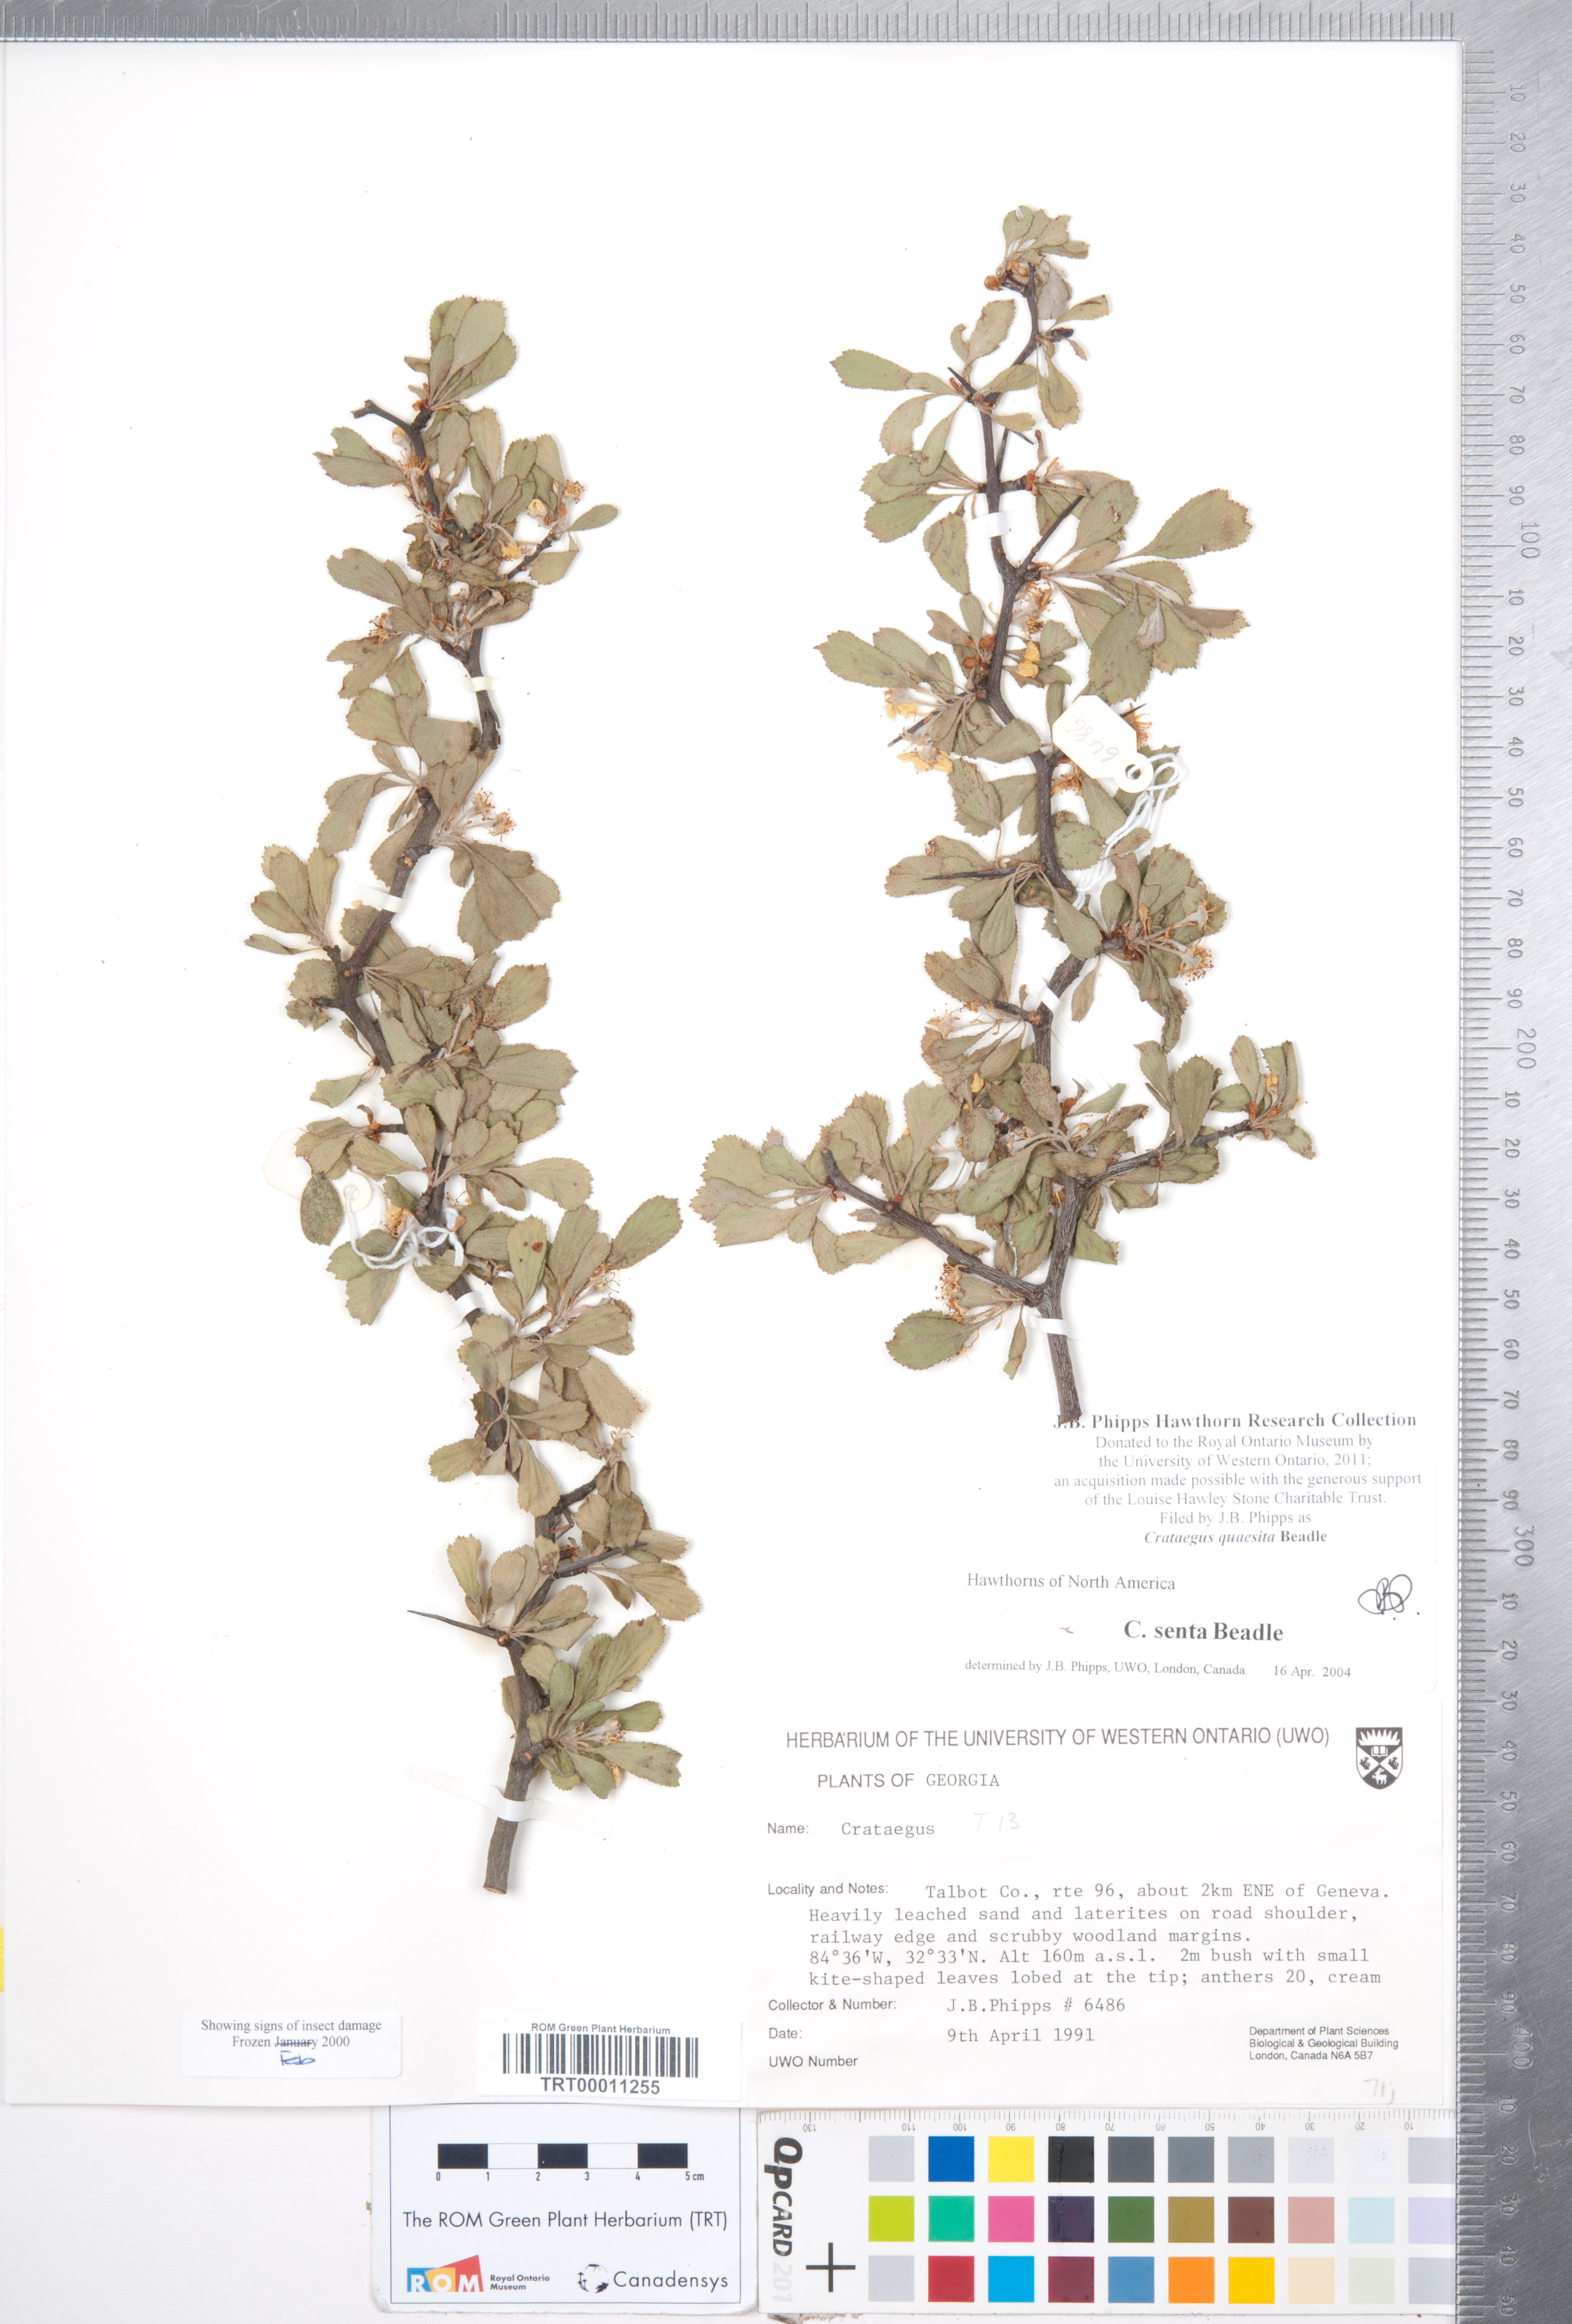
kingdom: Plantae
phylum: Tracheophyta
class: Magnoliopsida
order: Rosales
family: Rosaceae
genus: Crataegus
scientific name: Crataegus senta
